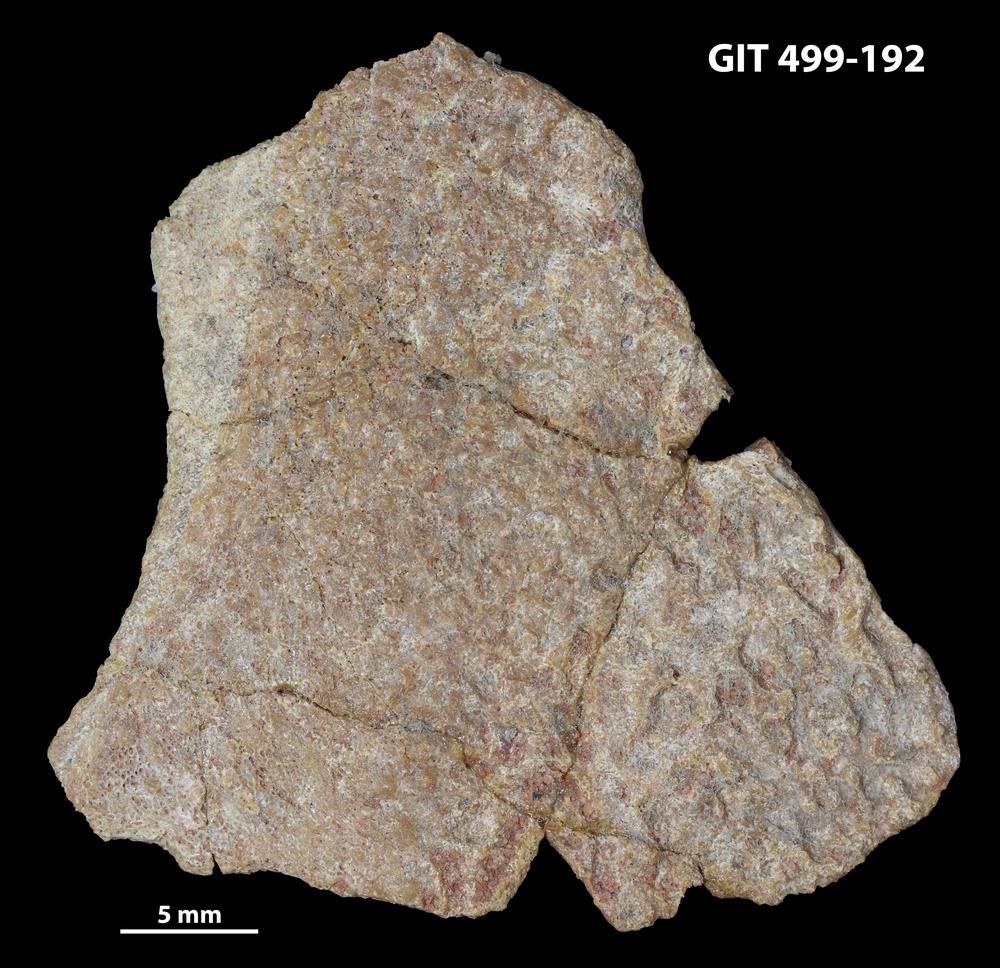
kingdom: Animalia
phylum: Chordata
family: Holoptychiidae
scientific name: Holoptychiidae
